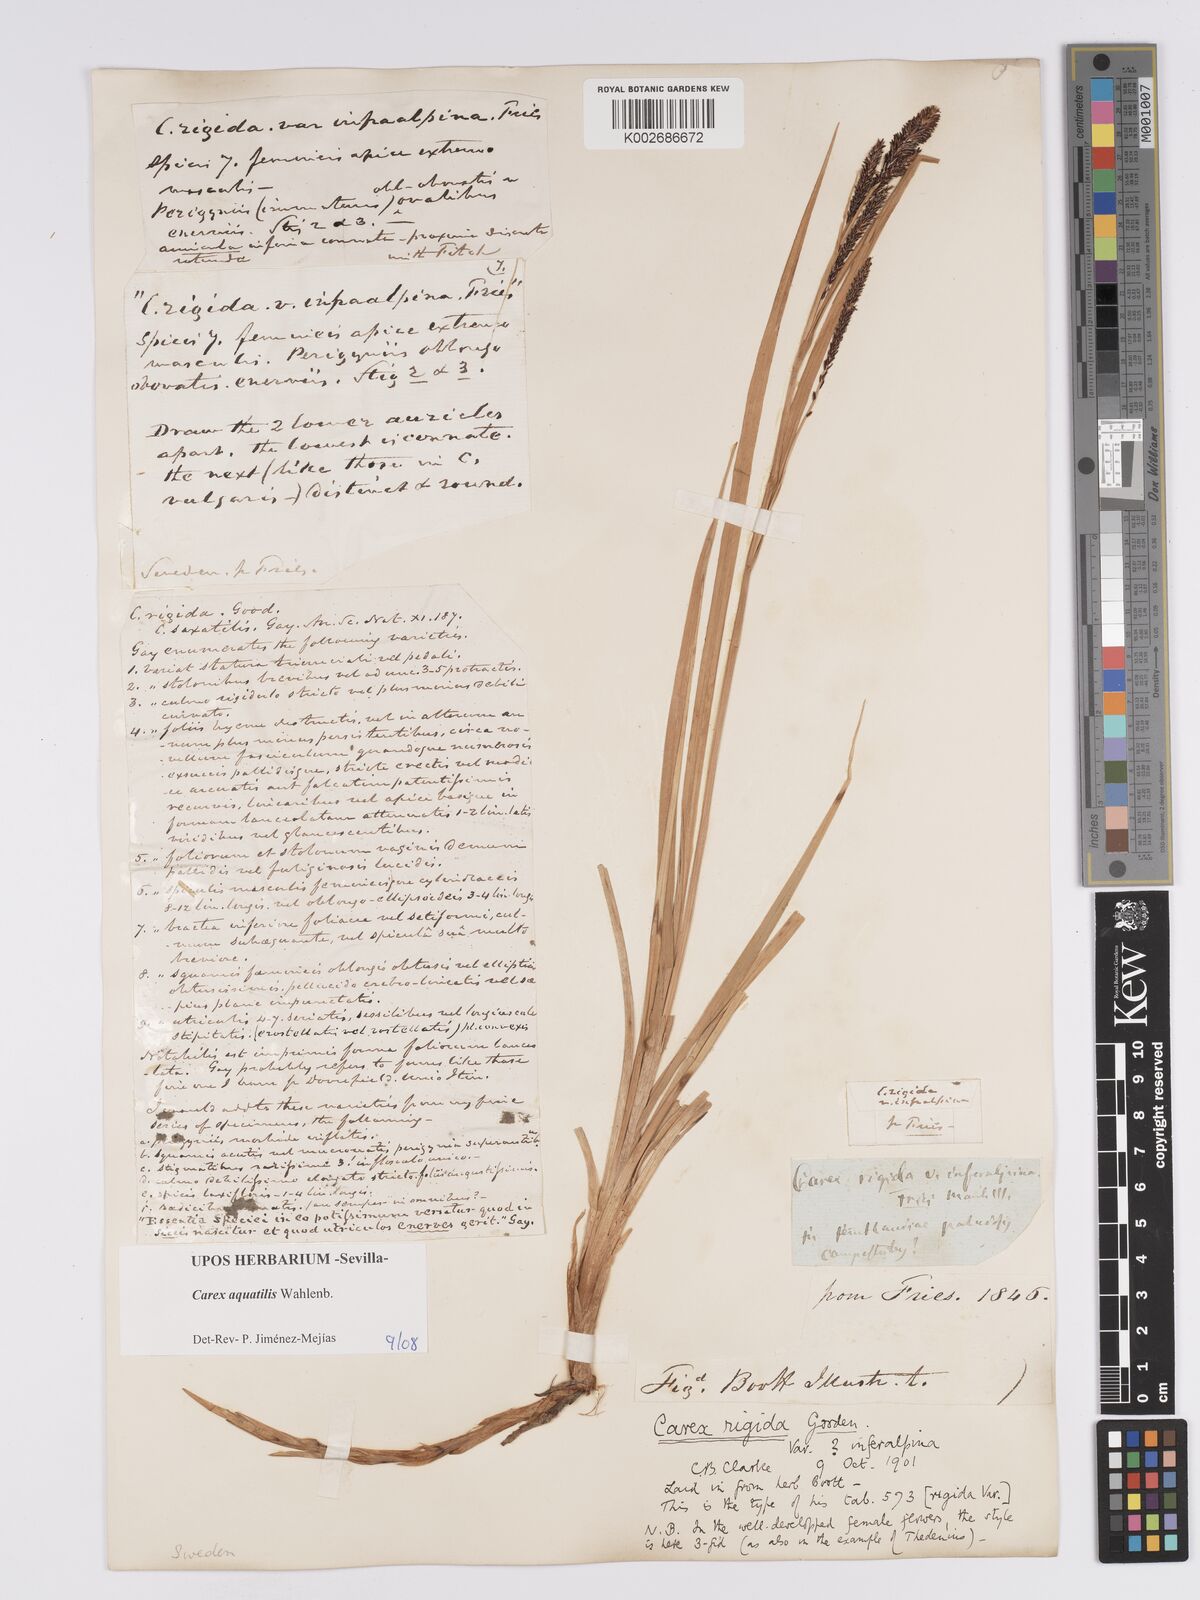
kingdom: Plantae
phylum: Tracheophyta
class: Liliopsida
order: Poales
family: Cyperaceae
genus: Carex
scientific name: Carex aquatilis
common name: Water sedge
